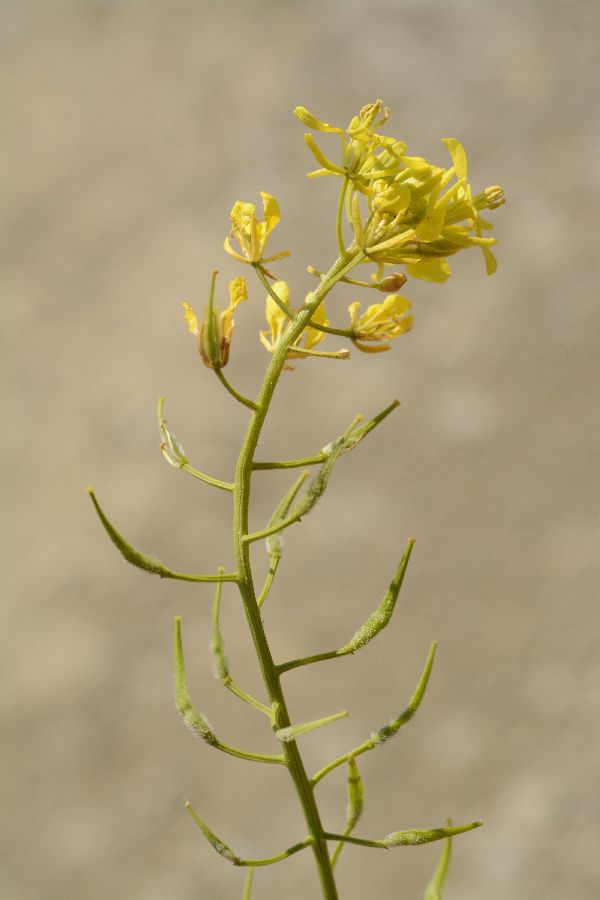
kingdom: Plantae
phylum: Tracheophyta
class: Magnoliopsida
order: Brassicales
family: Brassicaceae
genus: Sinapis
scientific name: Sinapis alba
